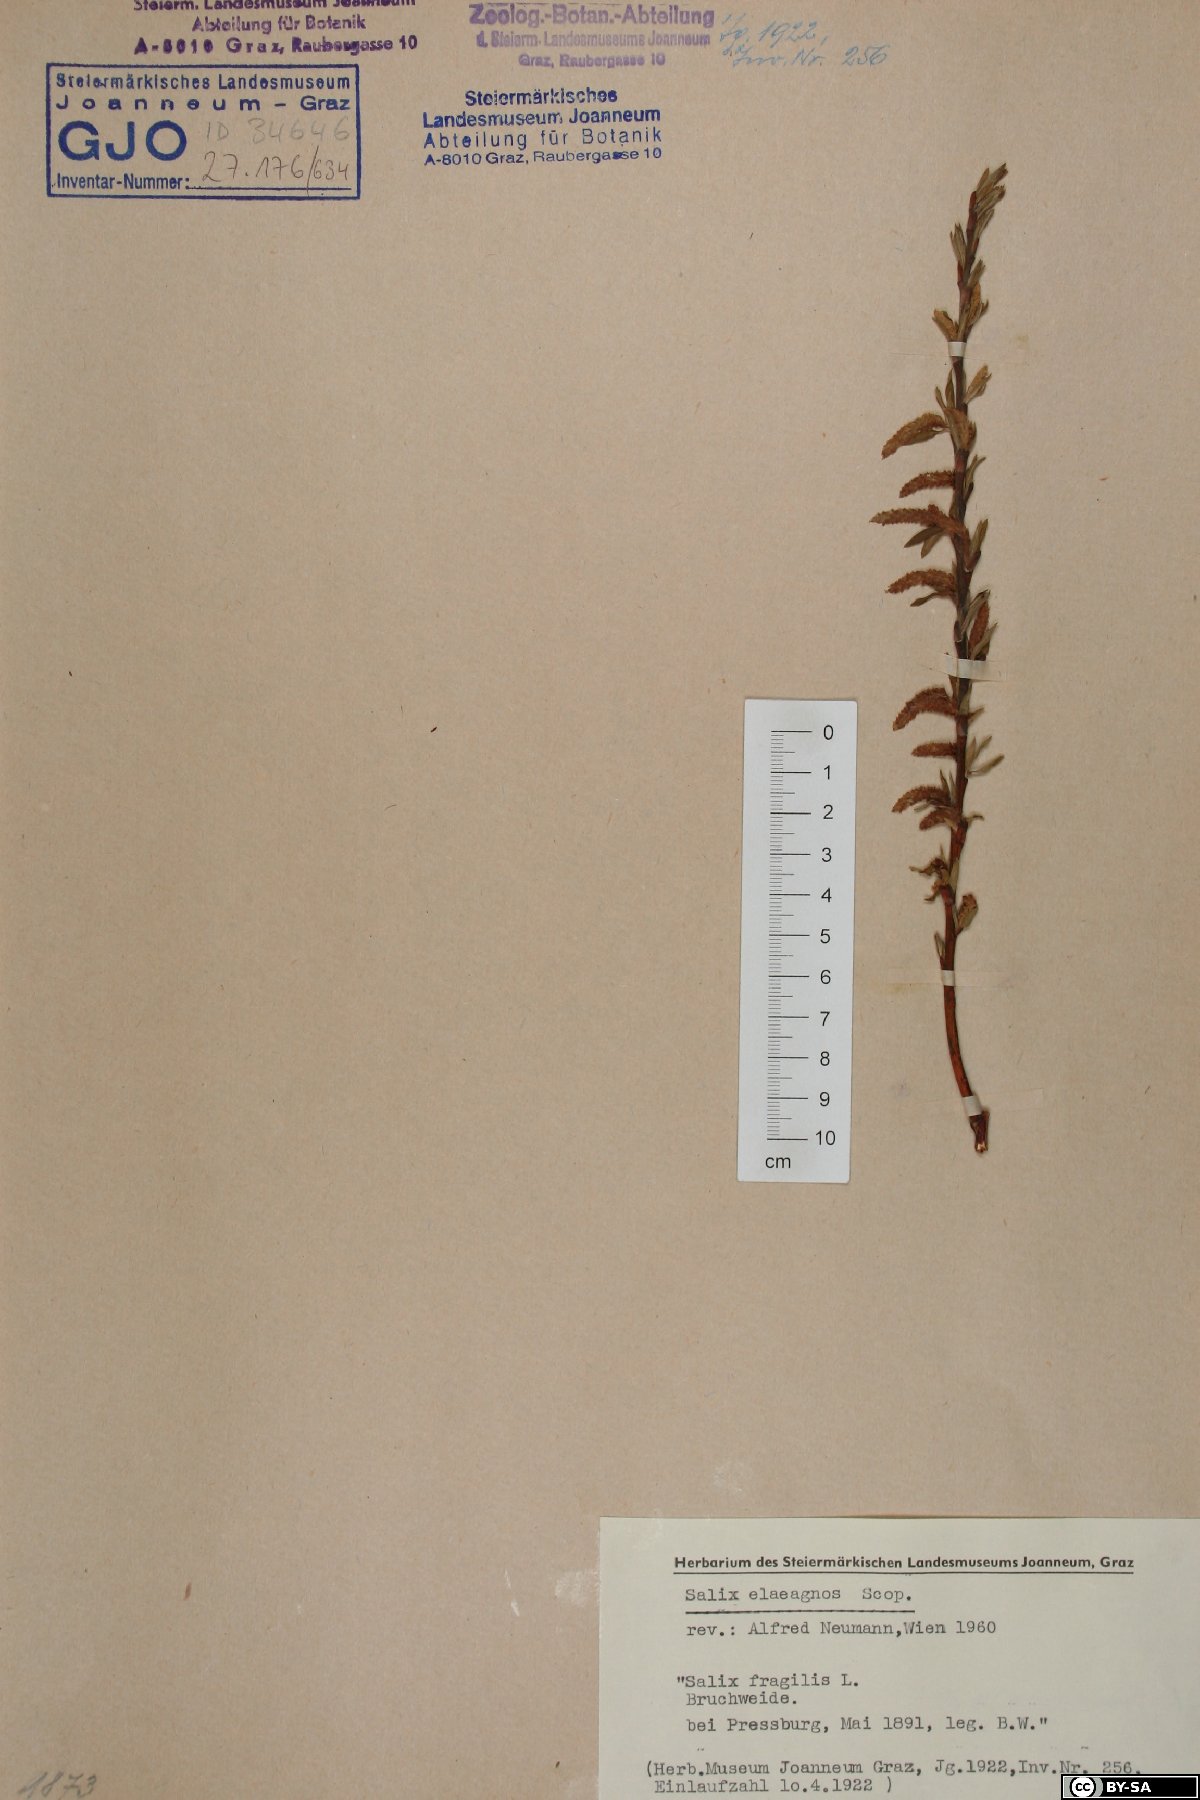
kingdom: Plantae
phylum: Tracheophyta
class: Magnoliopsida
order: Malpighiales
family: Salicaceae
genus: Salix
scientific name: Salix eleagnos
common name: Elaeagnus willow
